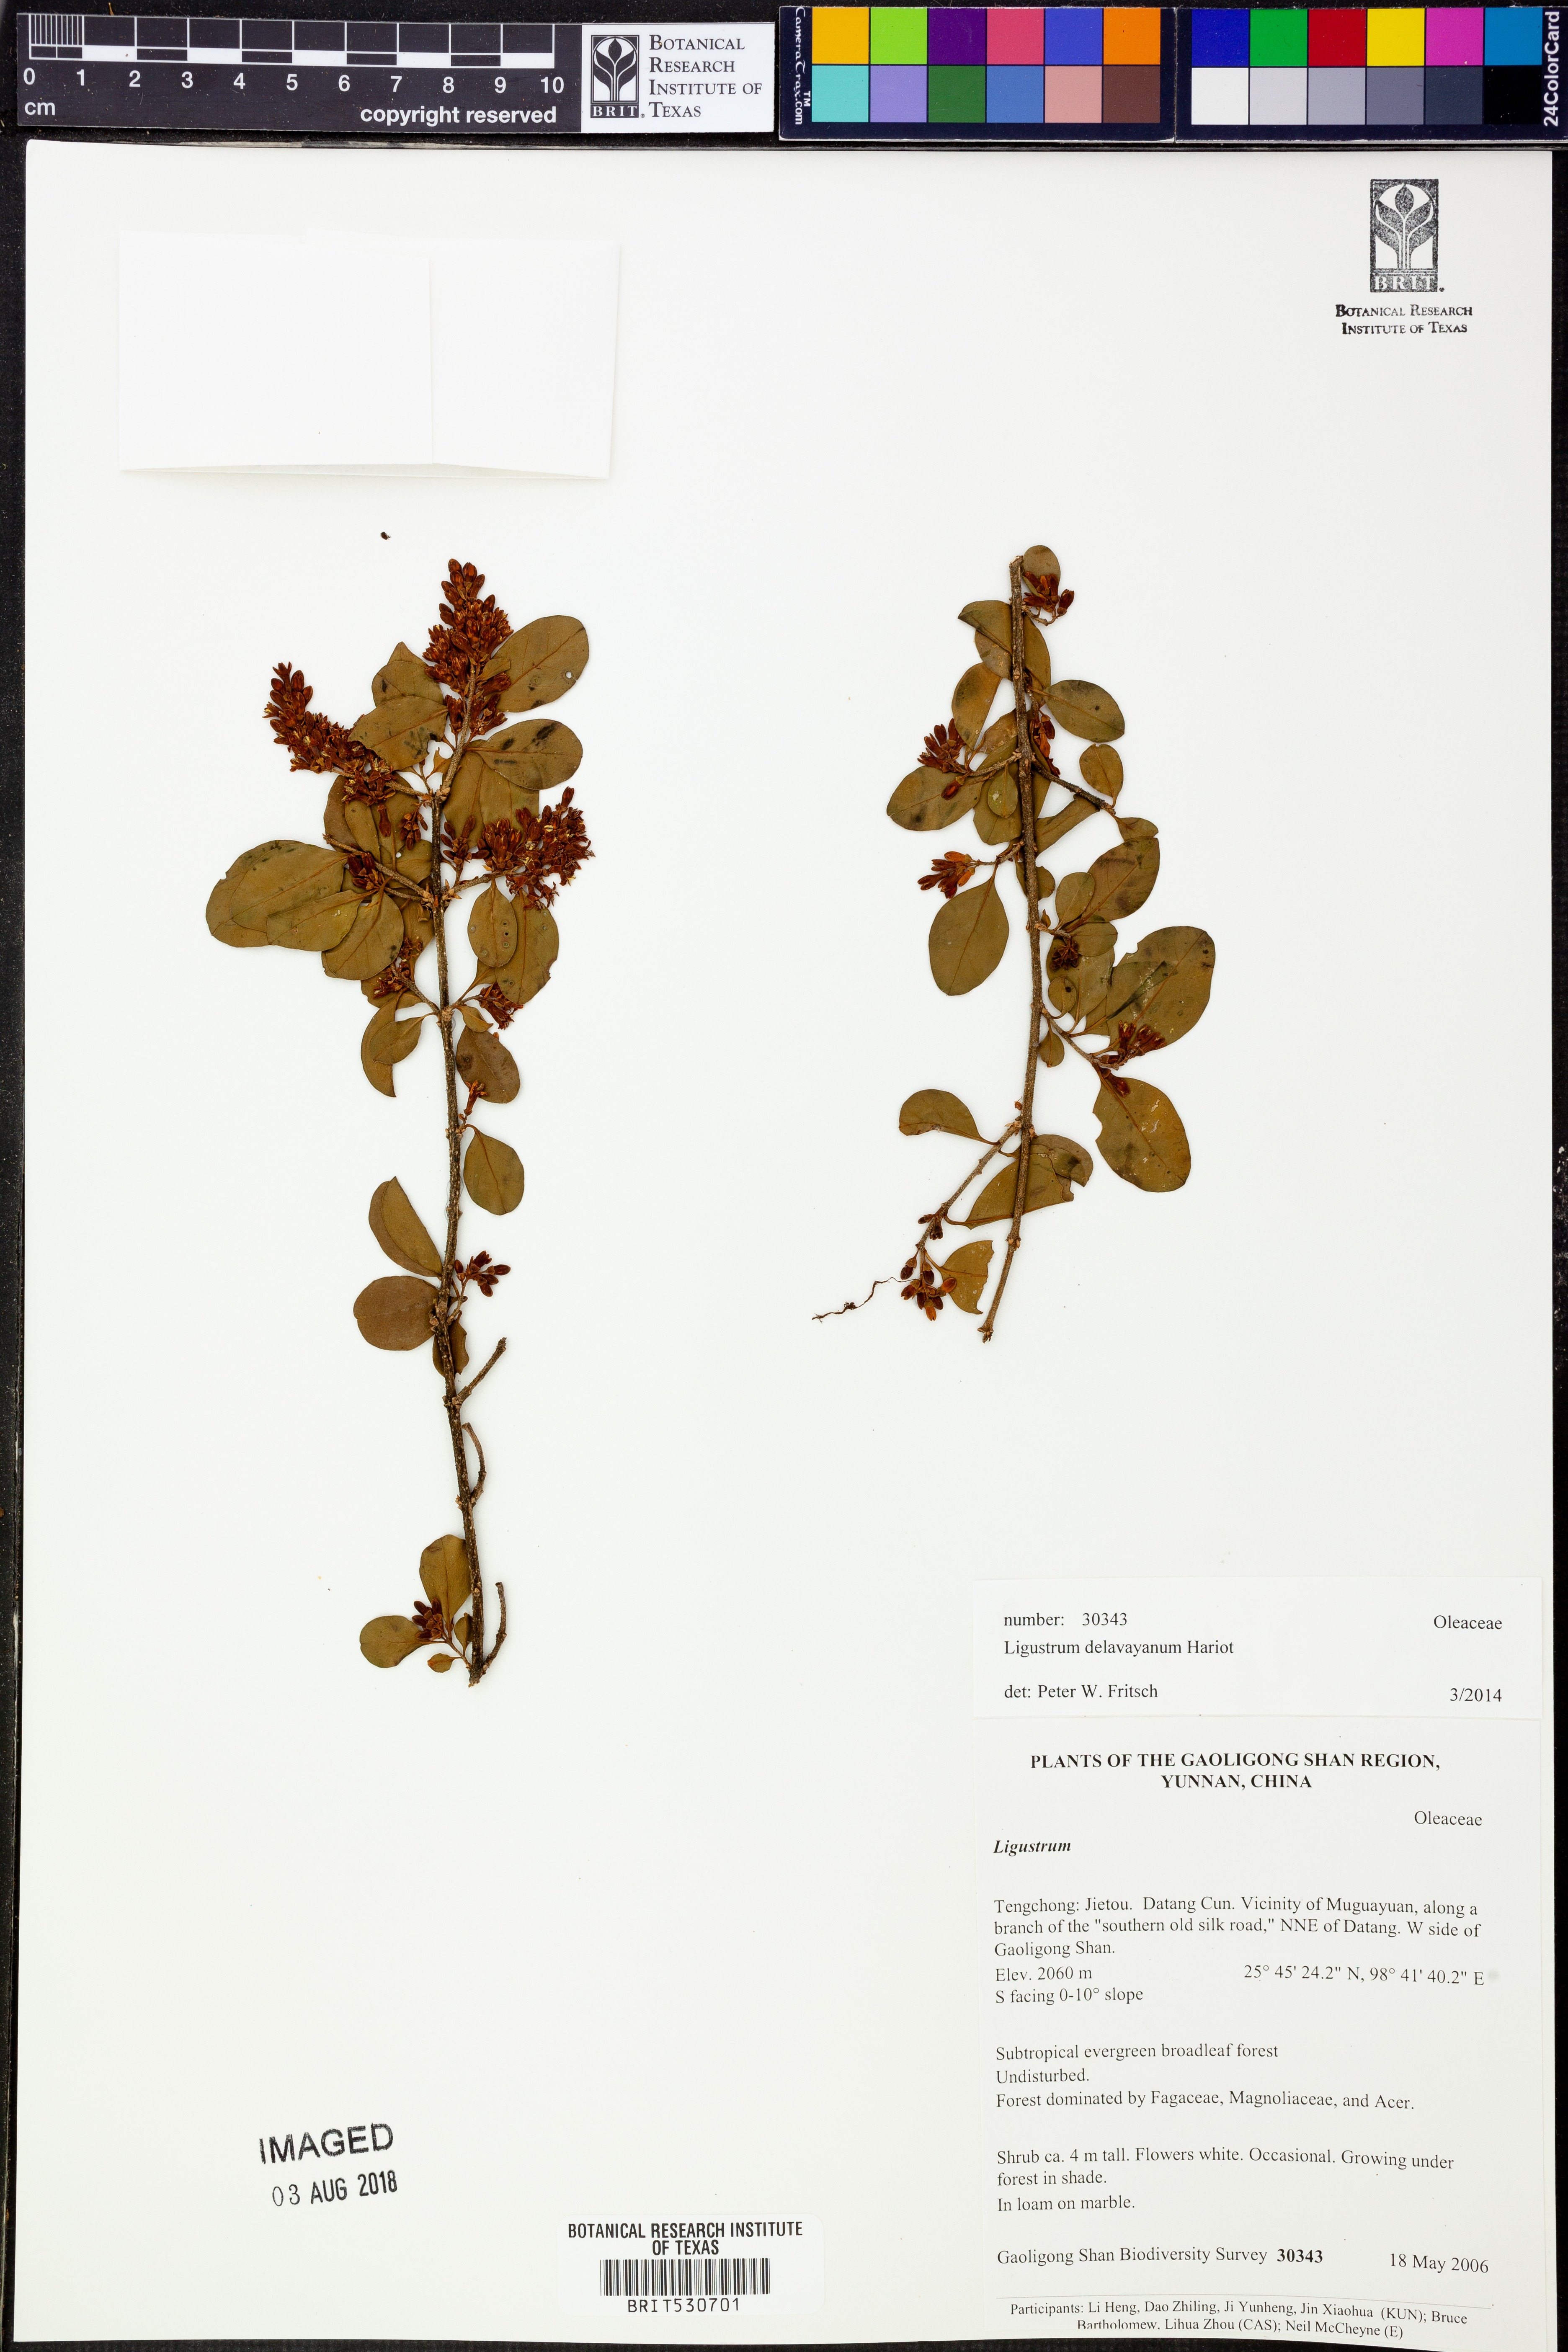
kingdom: Plantae
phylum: Tracheophyta
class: Magnoliopsida
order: Lamiales
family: Oleaceae
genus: Ligustrum
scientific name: Ligustrum delavayanum
